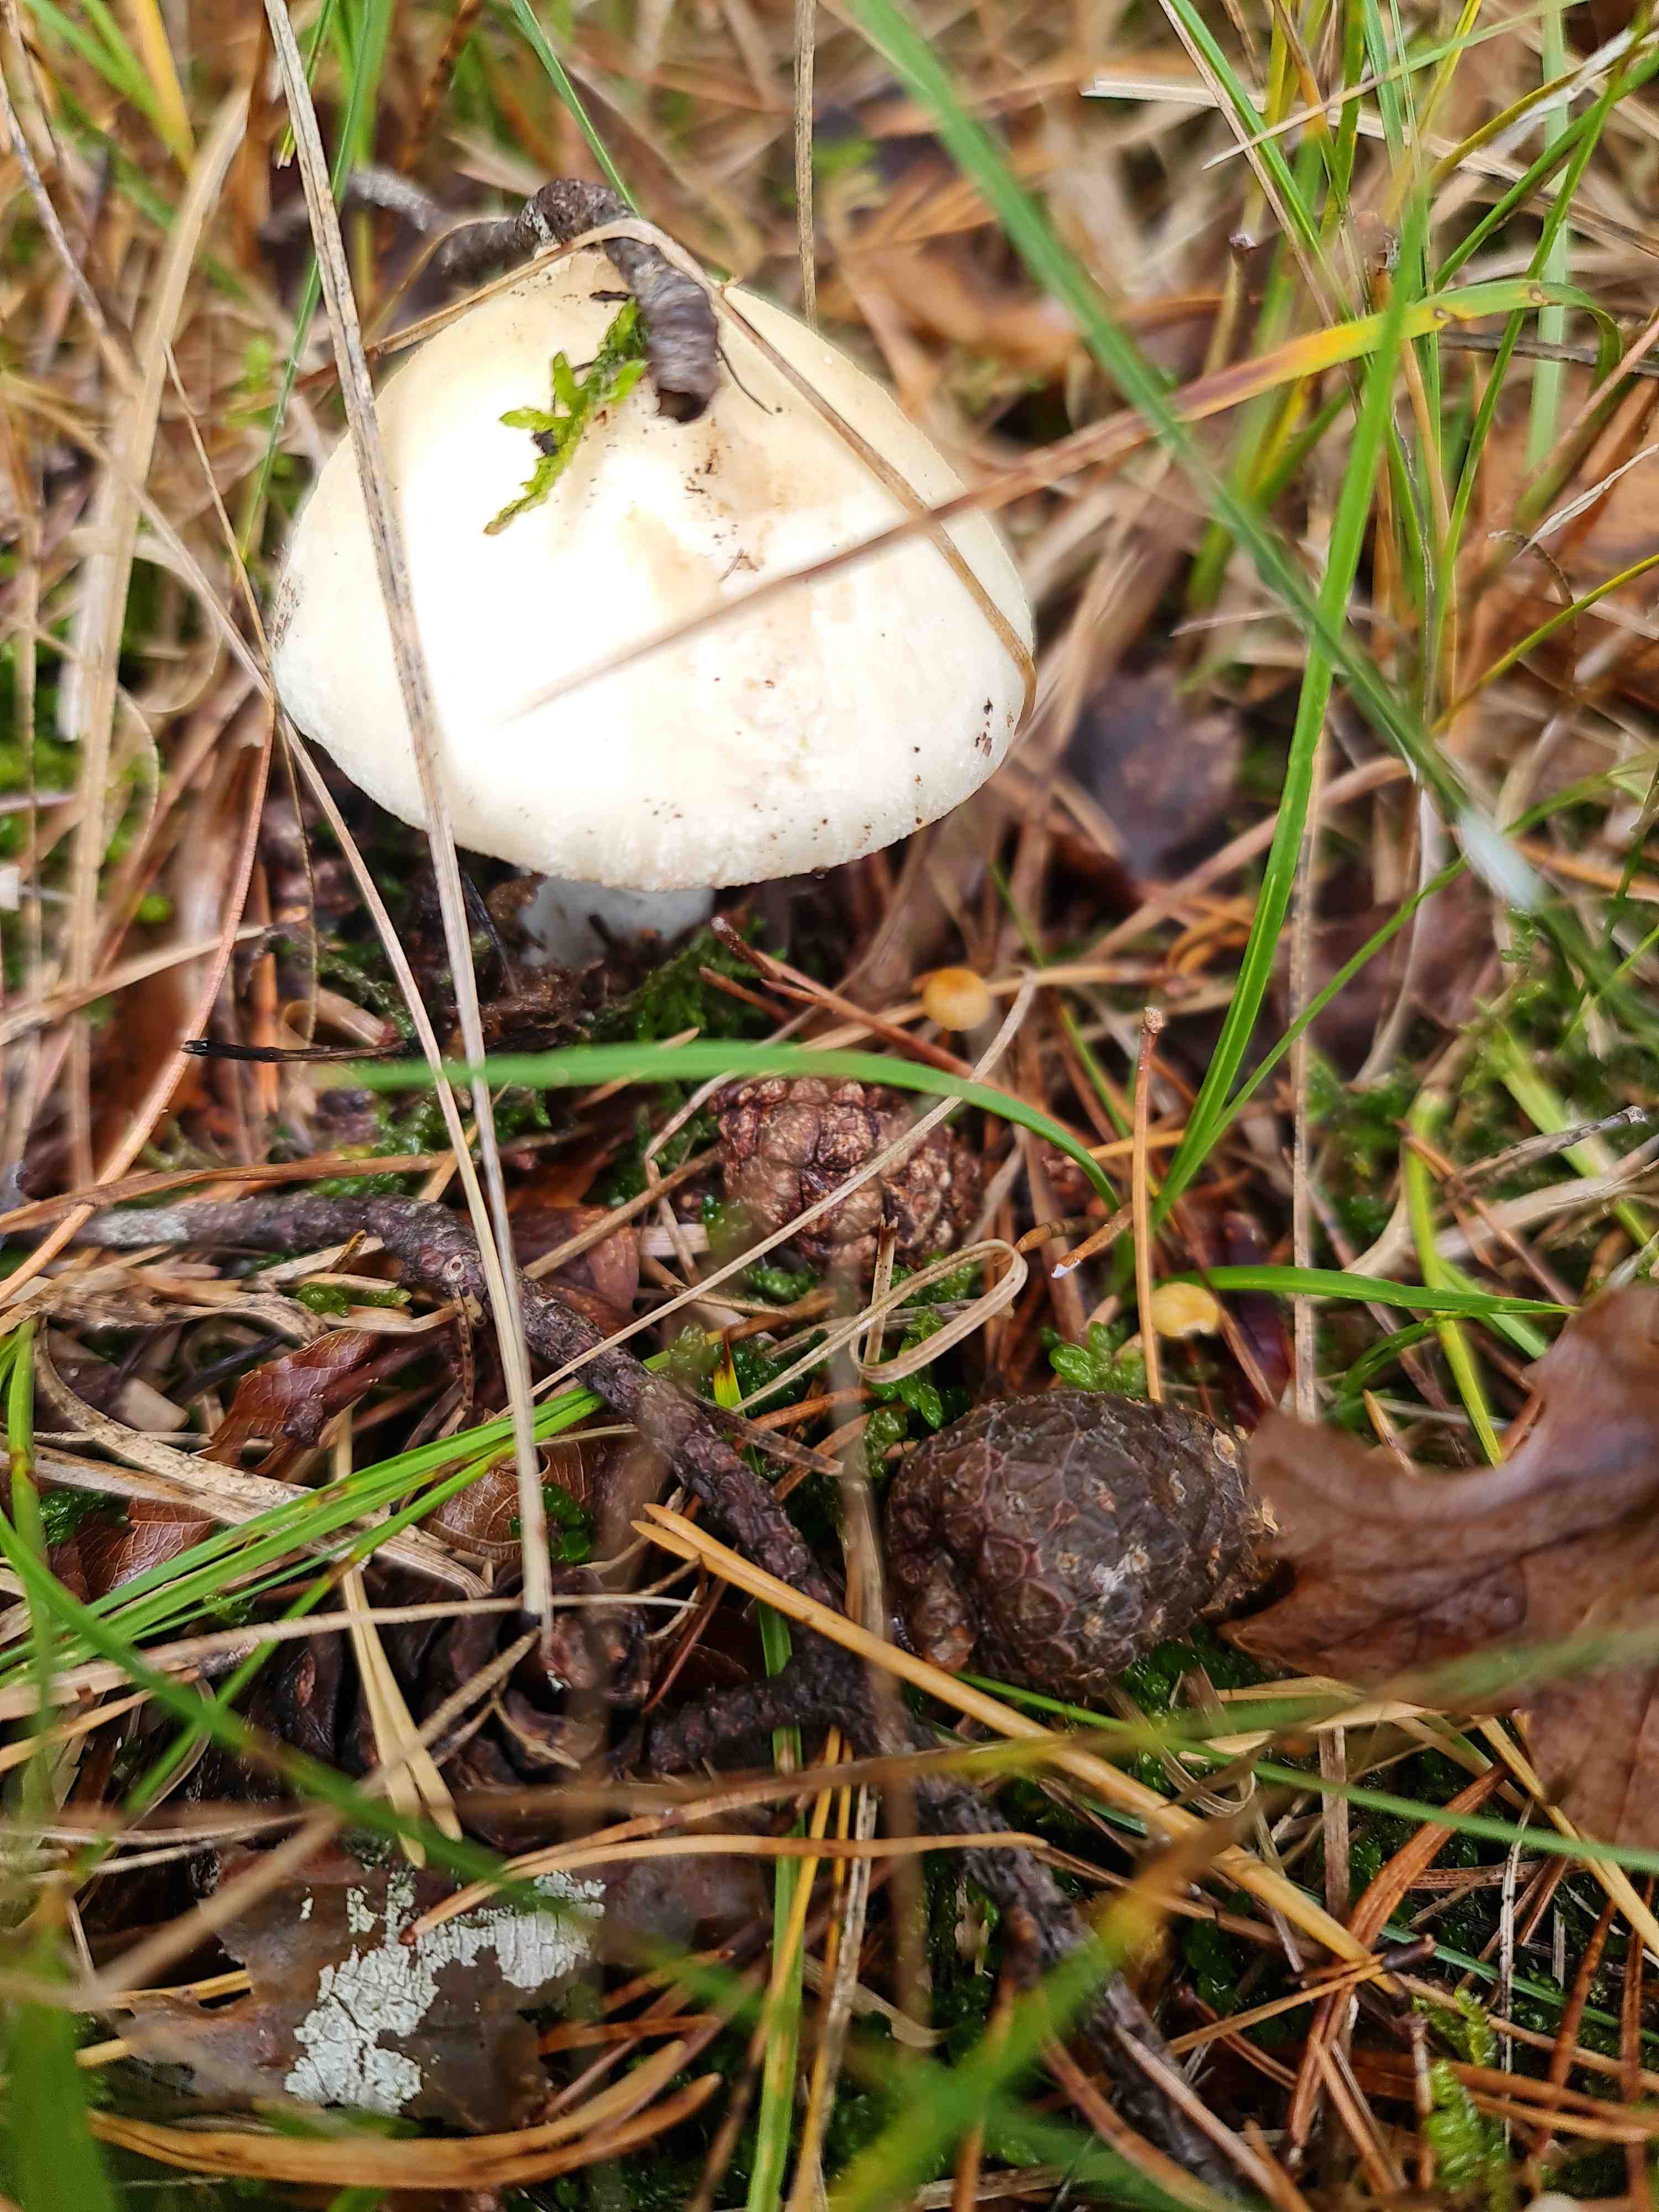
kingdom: Fungi
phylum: Basidiomycota
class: Agaricomycetes
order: Agaricales
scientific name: Agaricales
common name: champignonordenen
